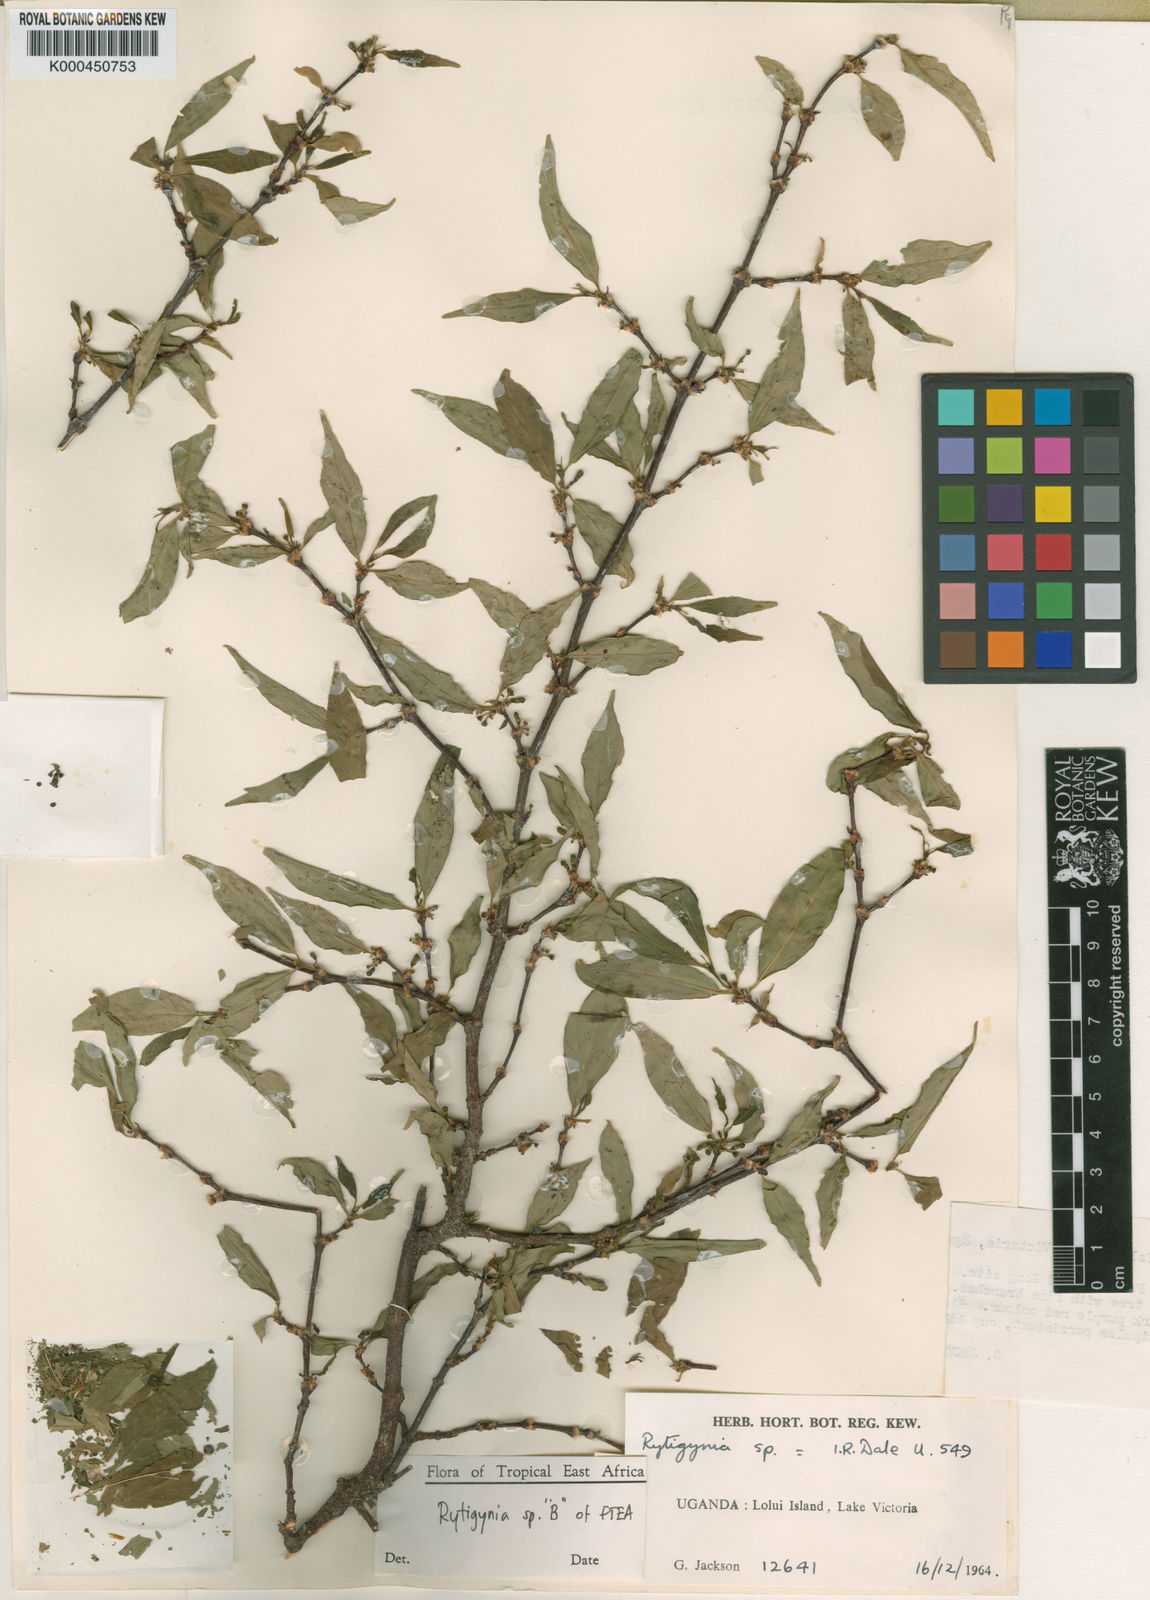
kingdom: Plantae
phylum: Tracheophyta
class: Magnoliopsida
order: Gentianales
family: Rubiaceae
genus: Rytigynia
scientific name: Rytigynia
